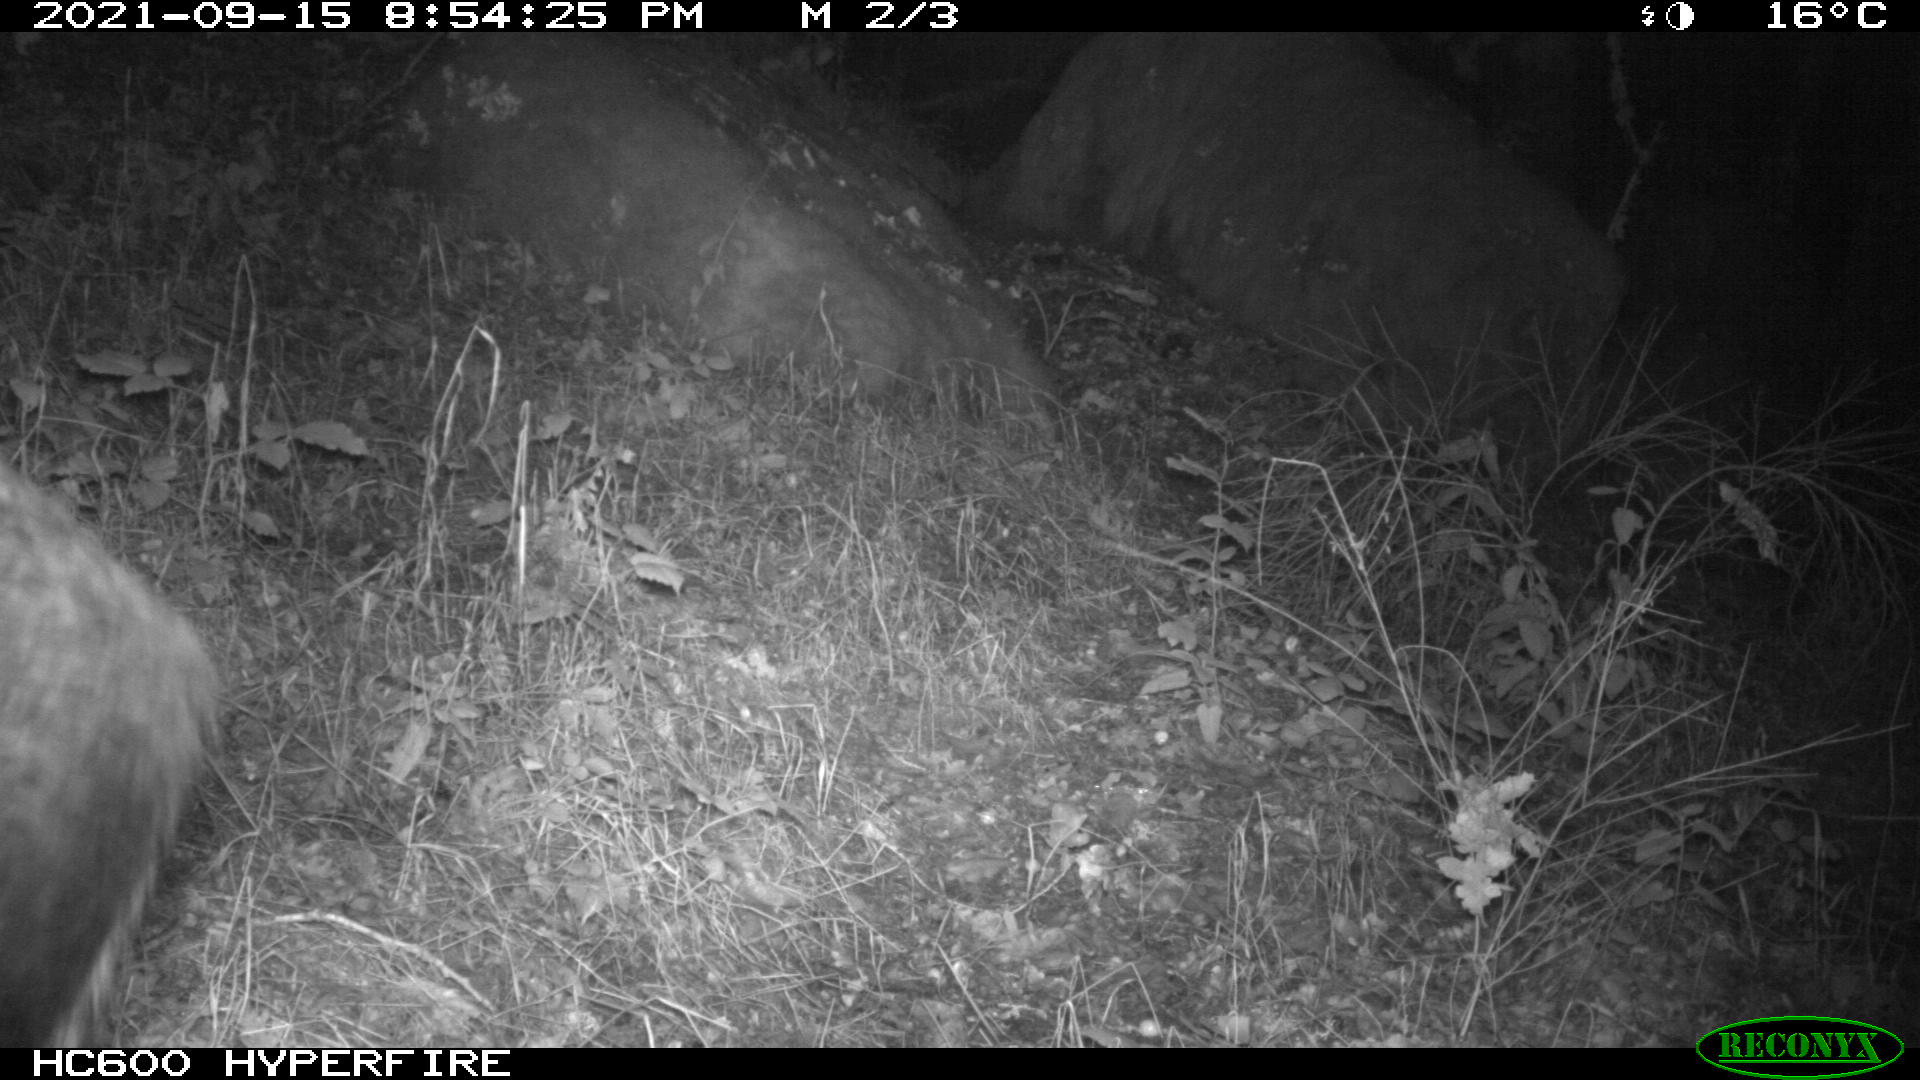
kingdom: Animalia
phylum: Chordata
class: Mammalia
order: Artiodactyla
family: Suidae
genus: Sus
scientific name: Sus scrofa
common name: Wild boar
